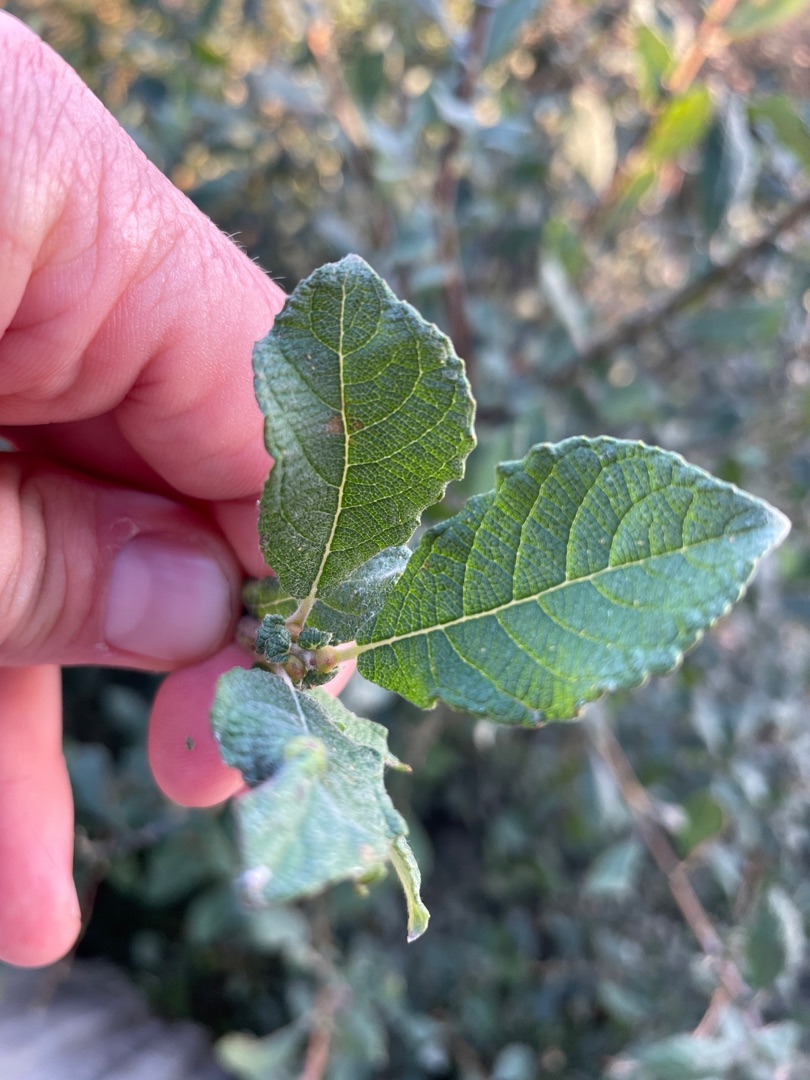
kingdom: Plantae
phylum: Tracheophyta
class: Magnoliopsida
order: Malpighiales
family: Salicaceae
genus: Salix
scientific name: Salix aurita
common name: Øret pil
